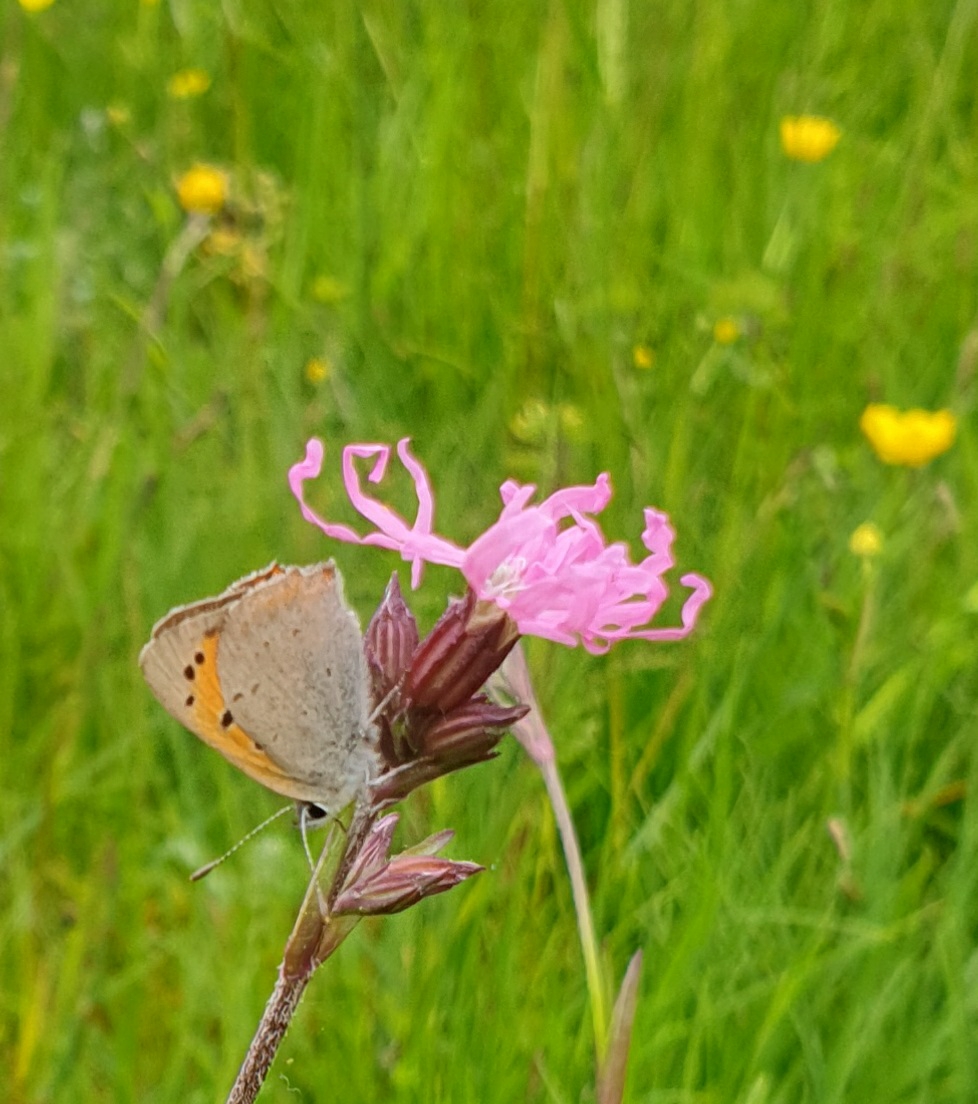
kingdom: Animalia
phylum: Arthropoda
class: Insecta
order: Lepidoptera
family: Lycaenidae
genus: Lycaena
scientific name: Lycaena phlaeas
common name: Lille ildfugl
